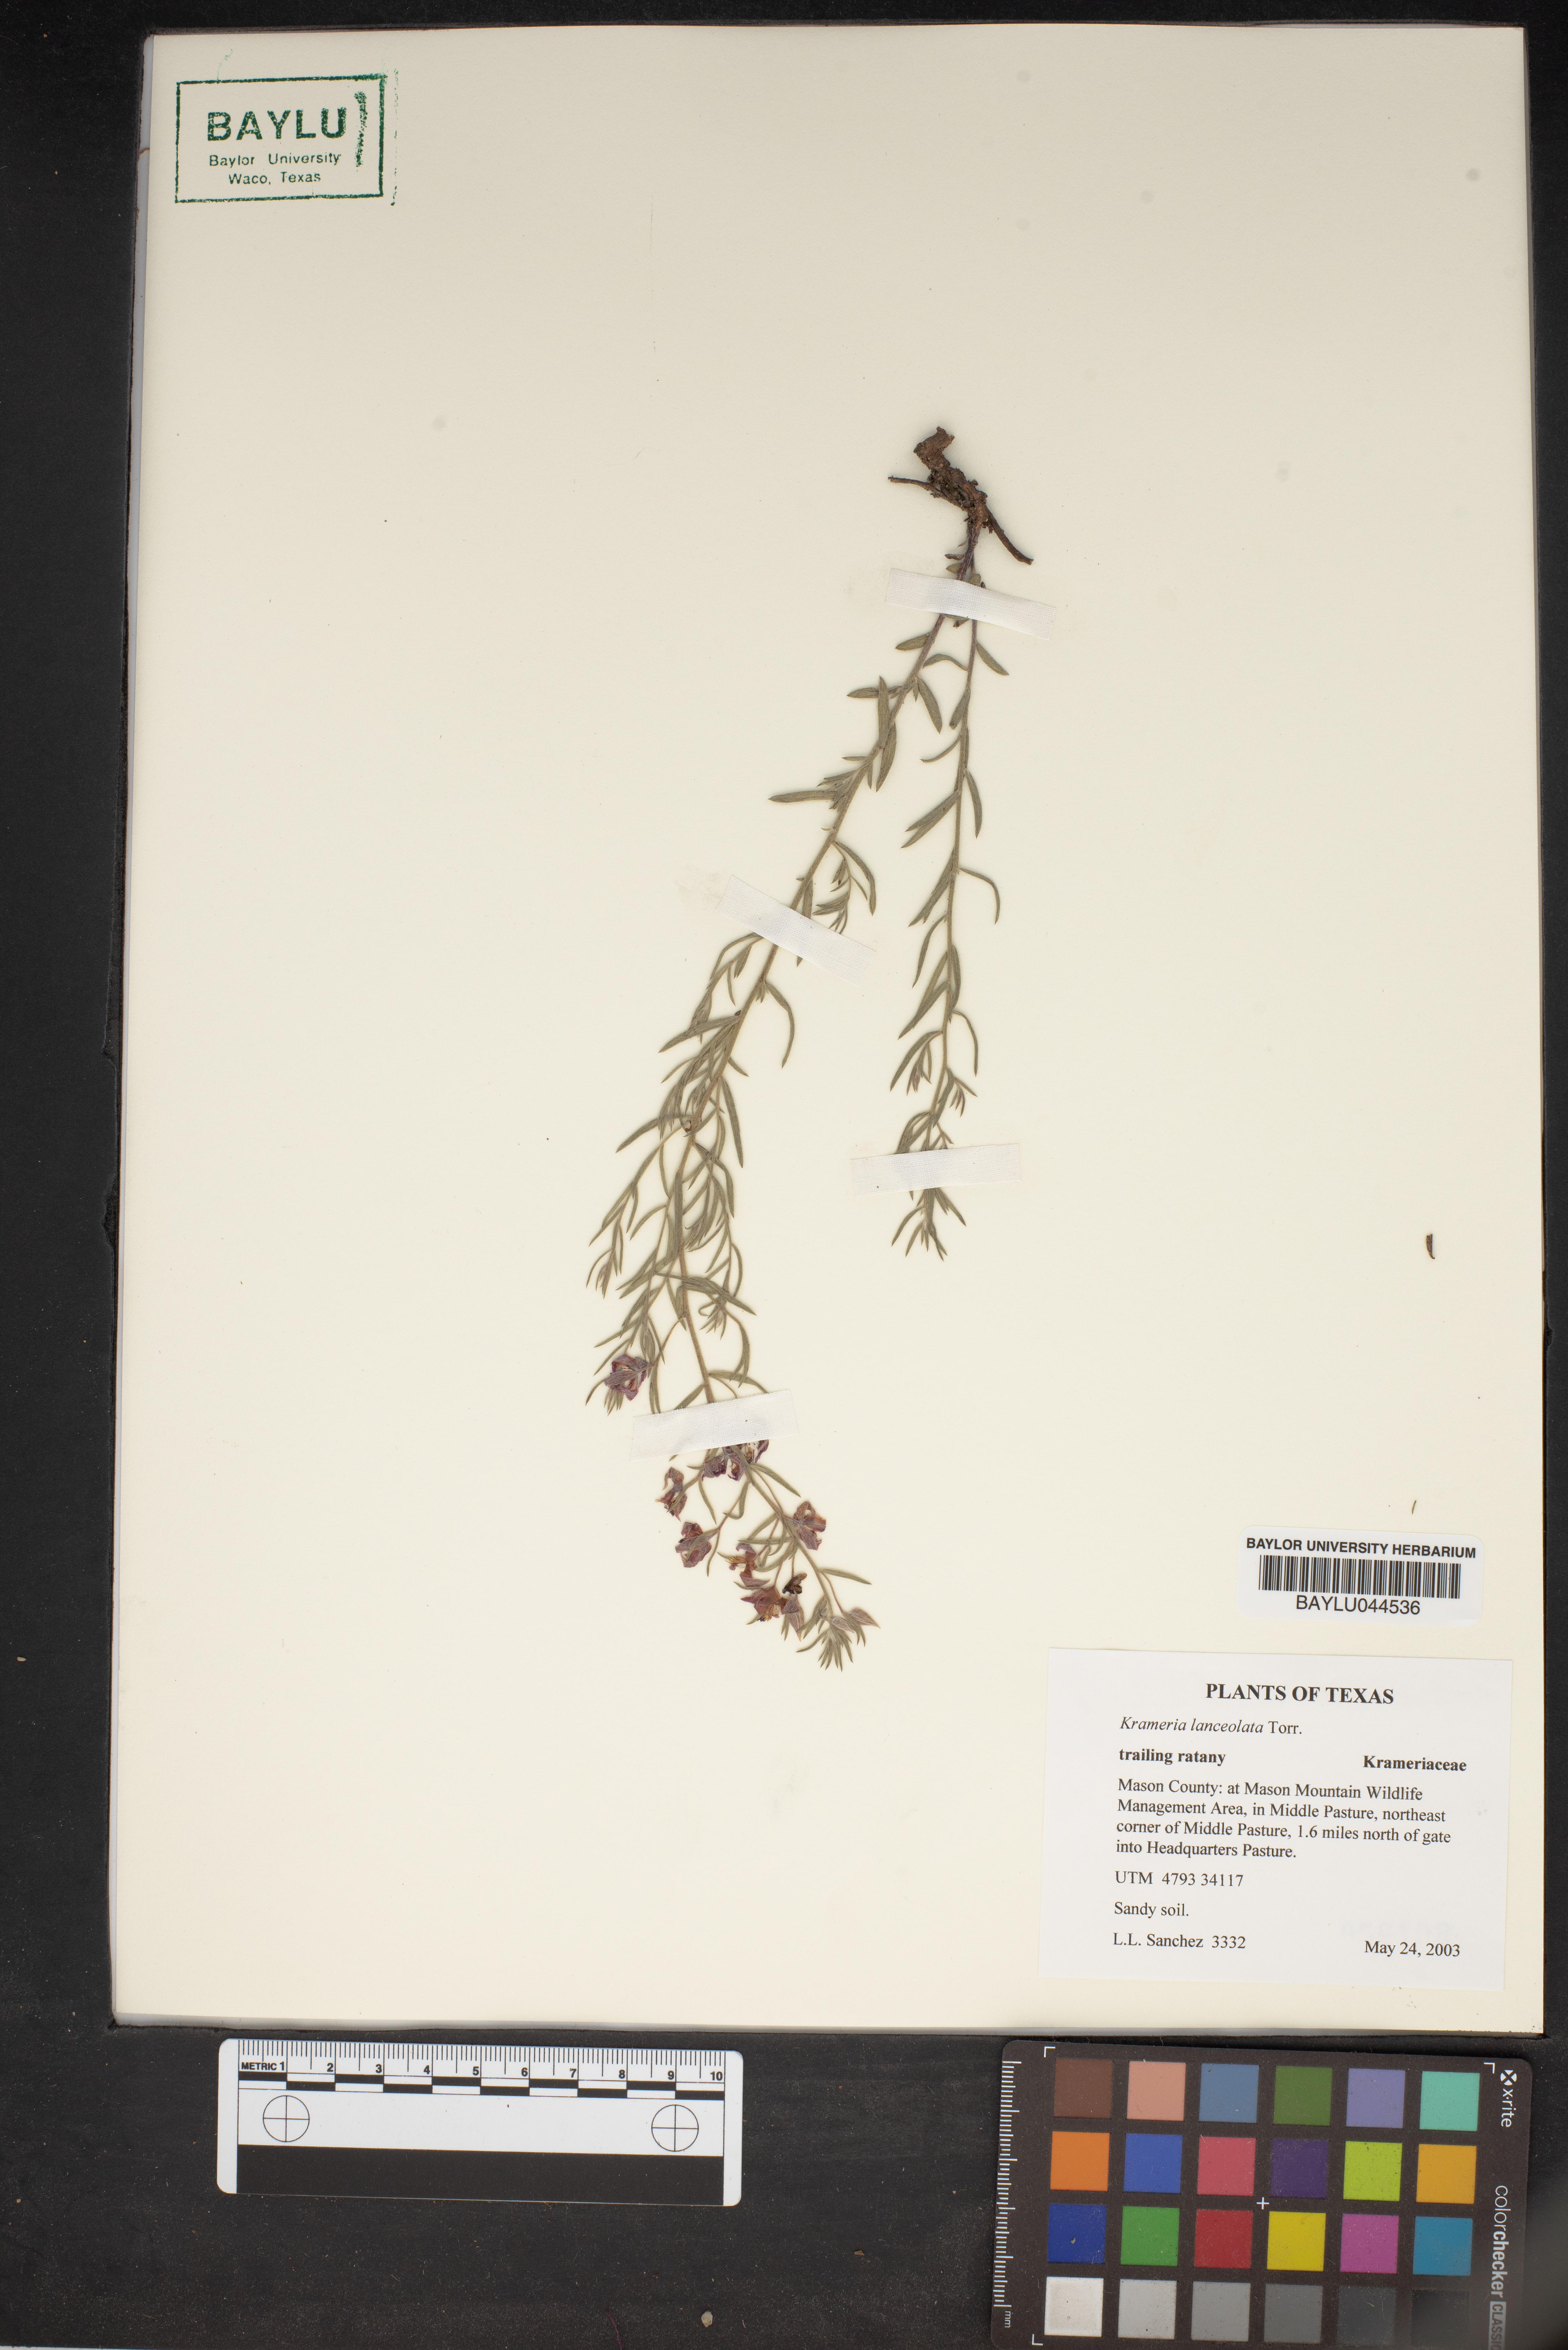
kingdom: Plantae
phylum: Tracheophyta
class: Magnoliopsida
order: Zygophyllales
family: Krameriaceae
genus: Krameria
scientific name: Krameria lanceolata
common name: Ratany
